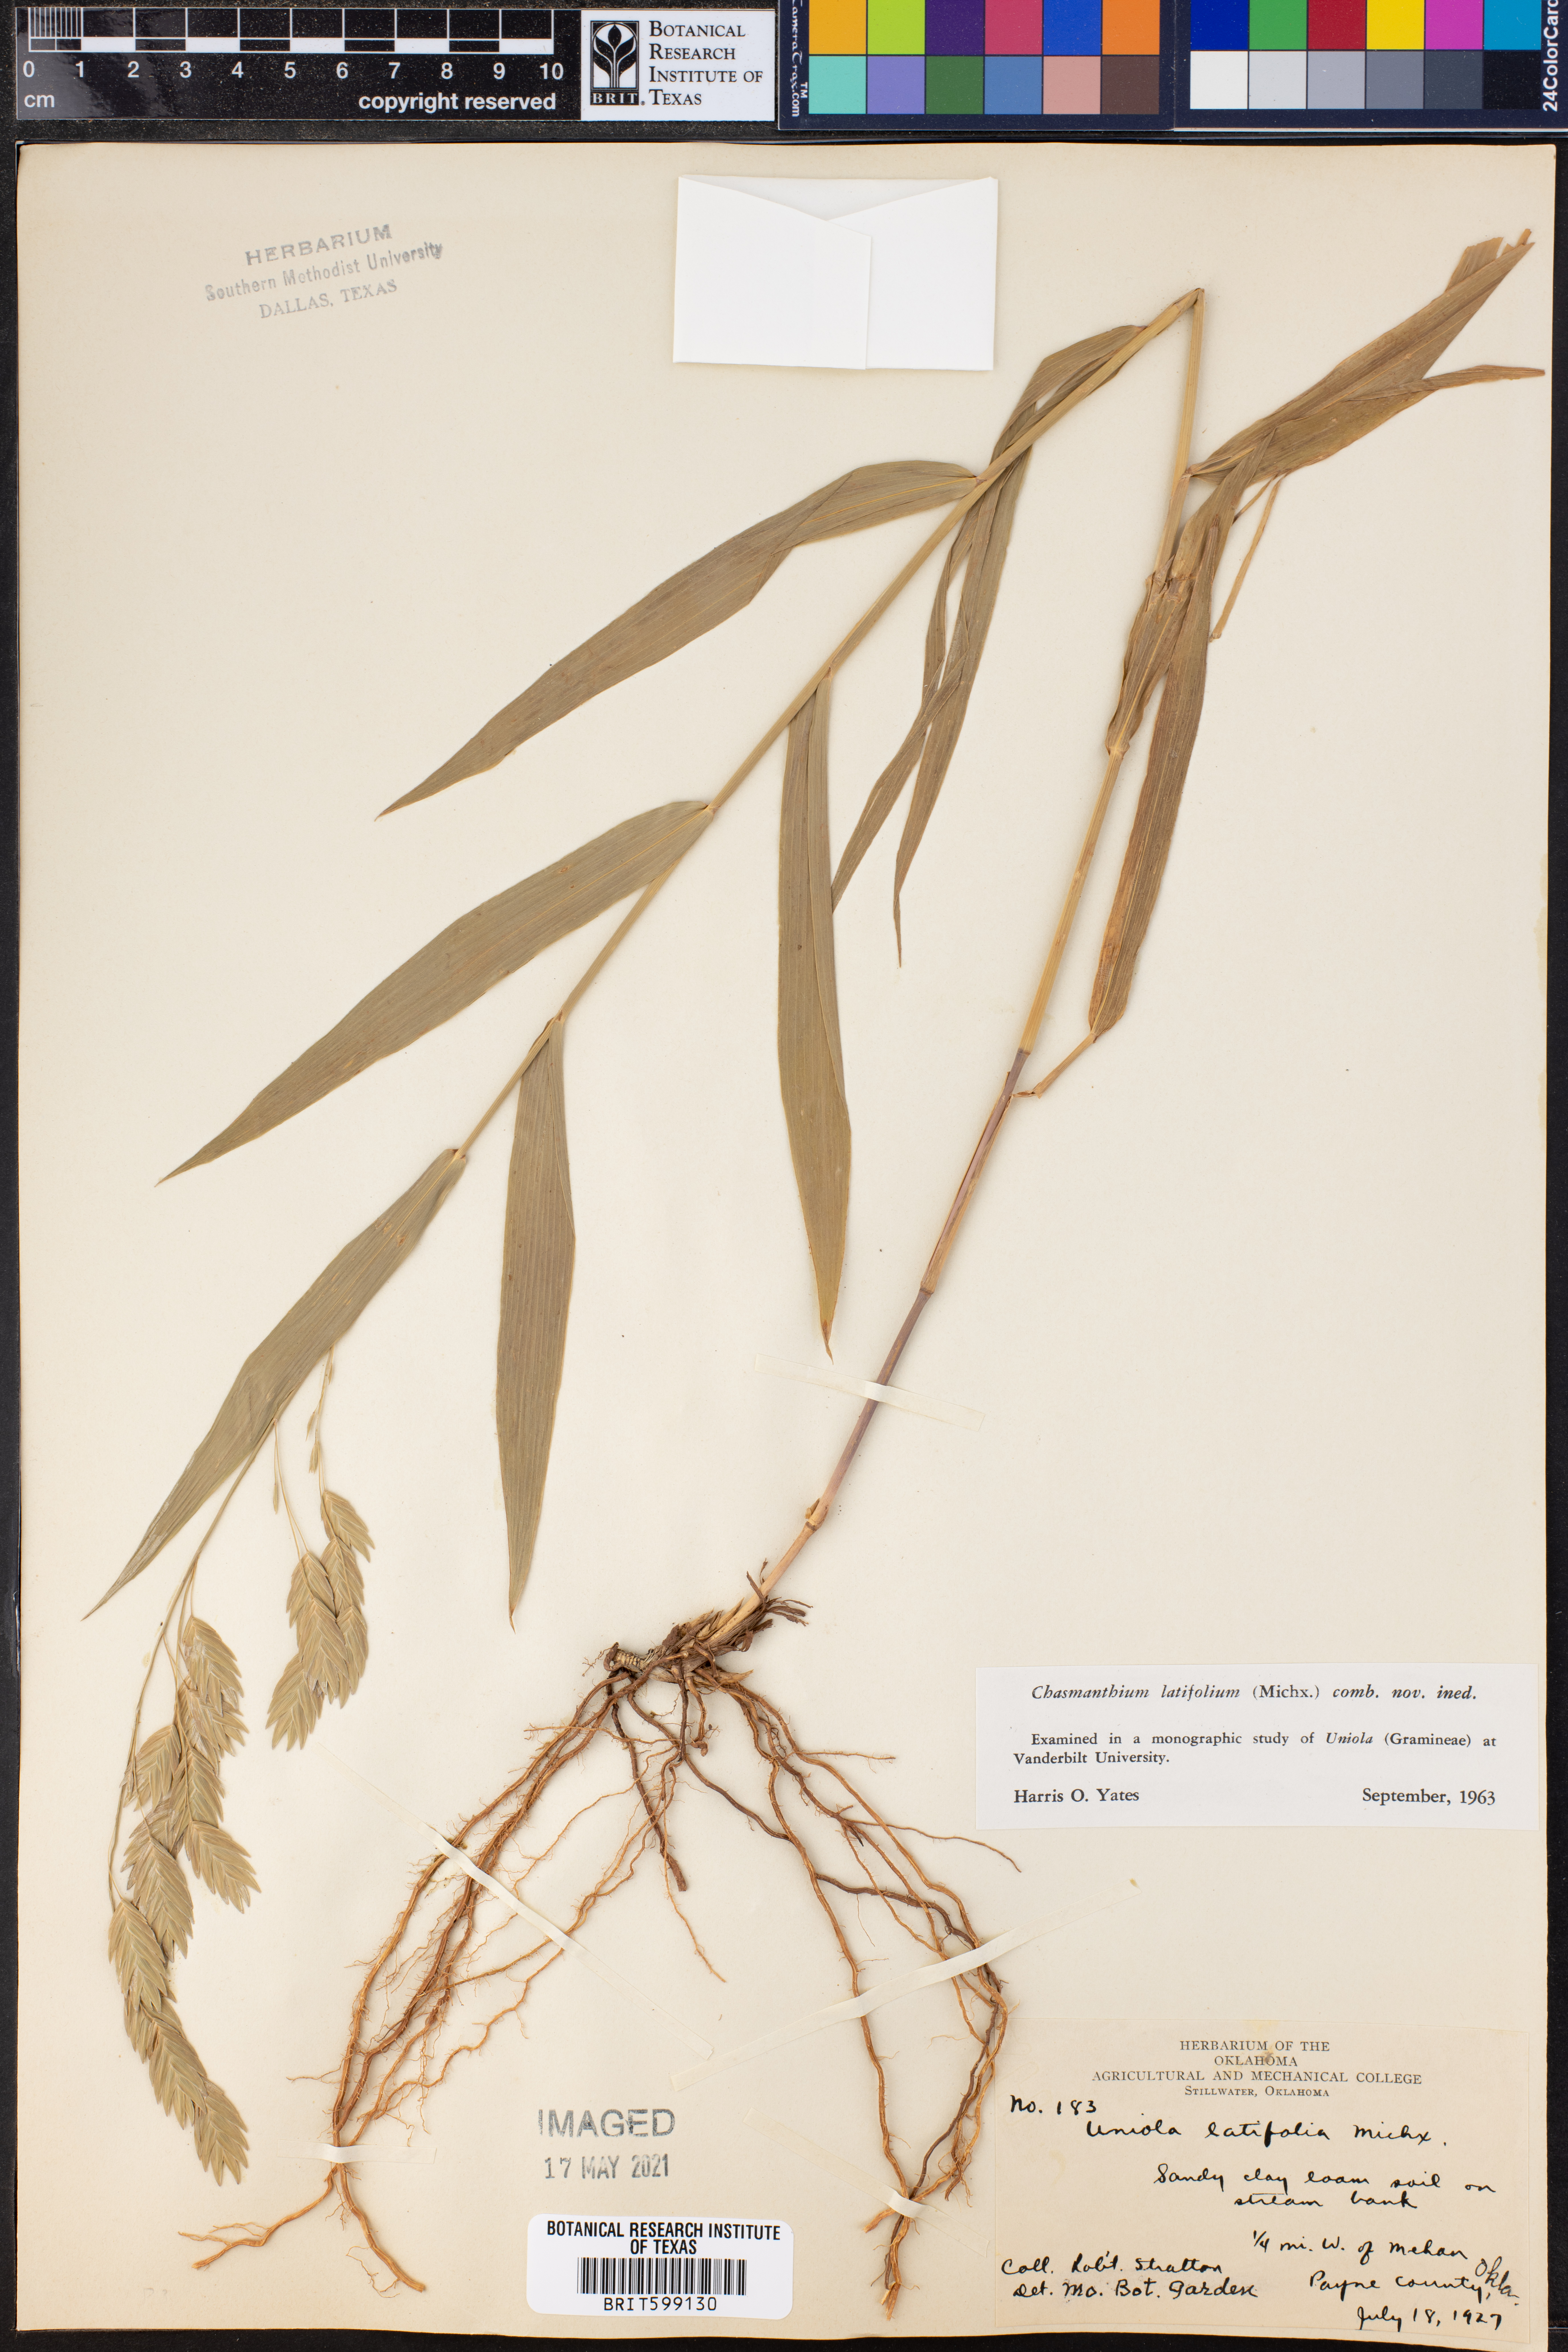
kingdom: Plantae
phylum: Tracheophyta
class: Liliopsida
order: Poales
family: Poaceae
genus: Chasmanthium
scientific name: Chasmanthium latifolium
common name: Broad-leaved chasmanthium
